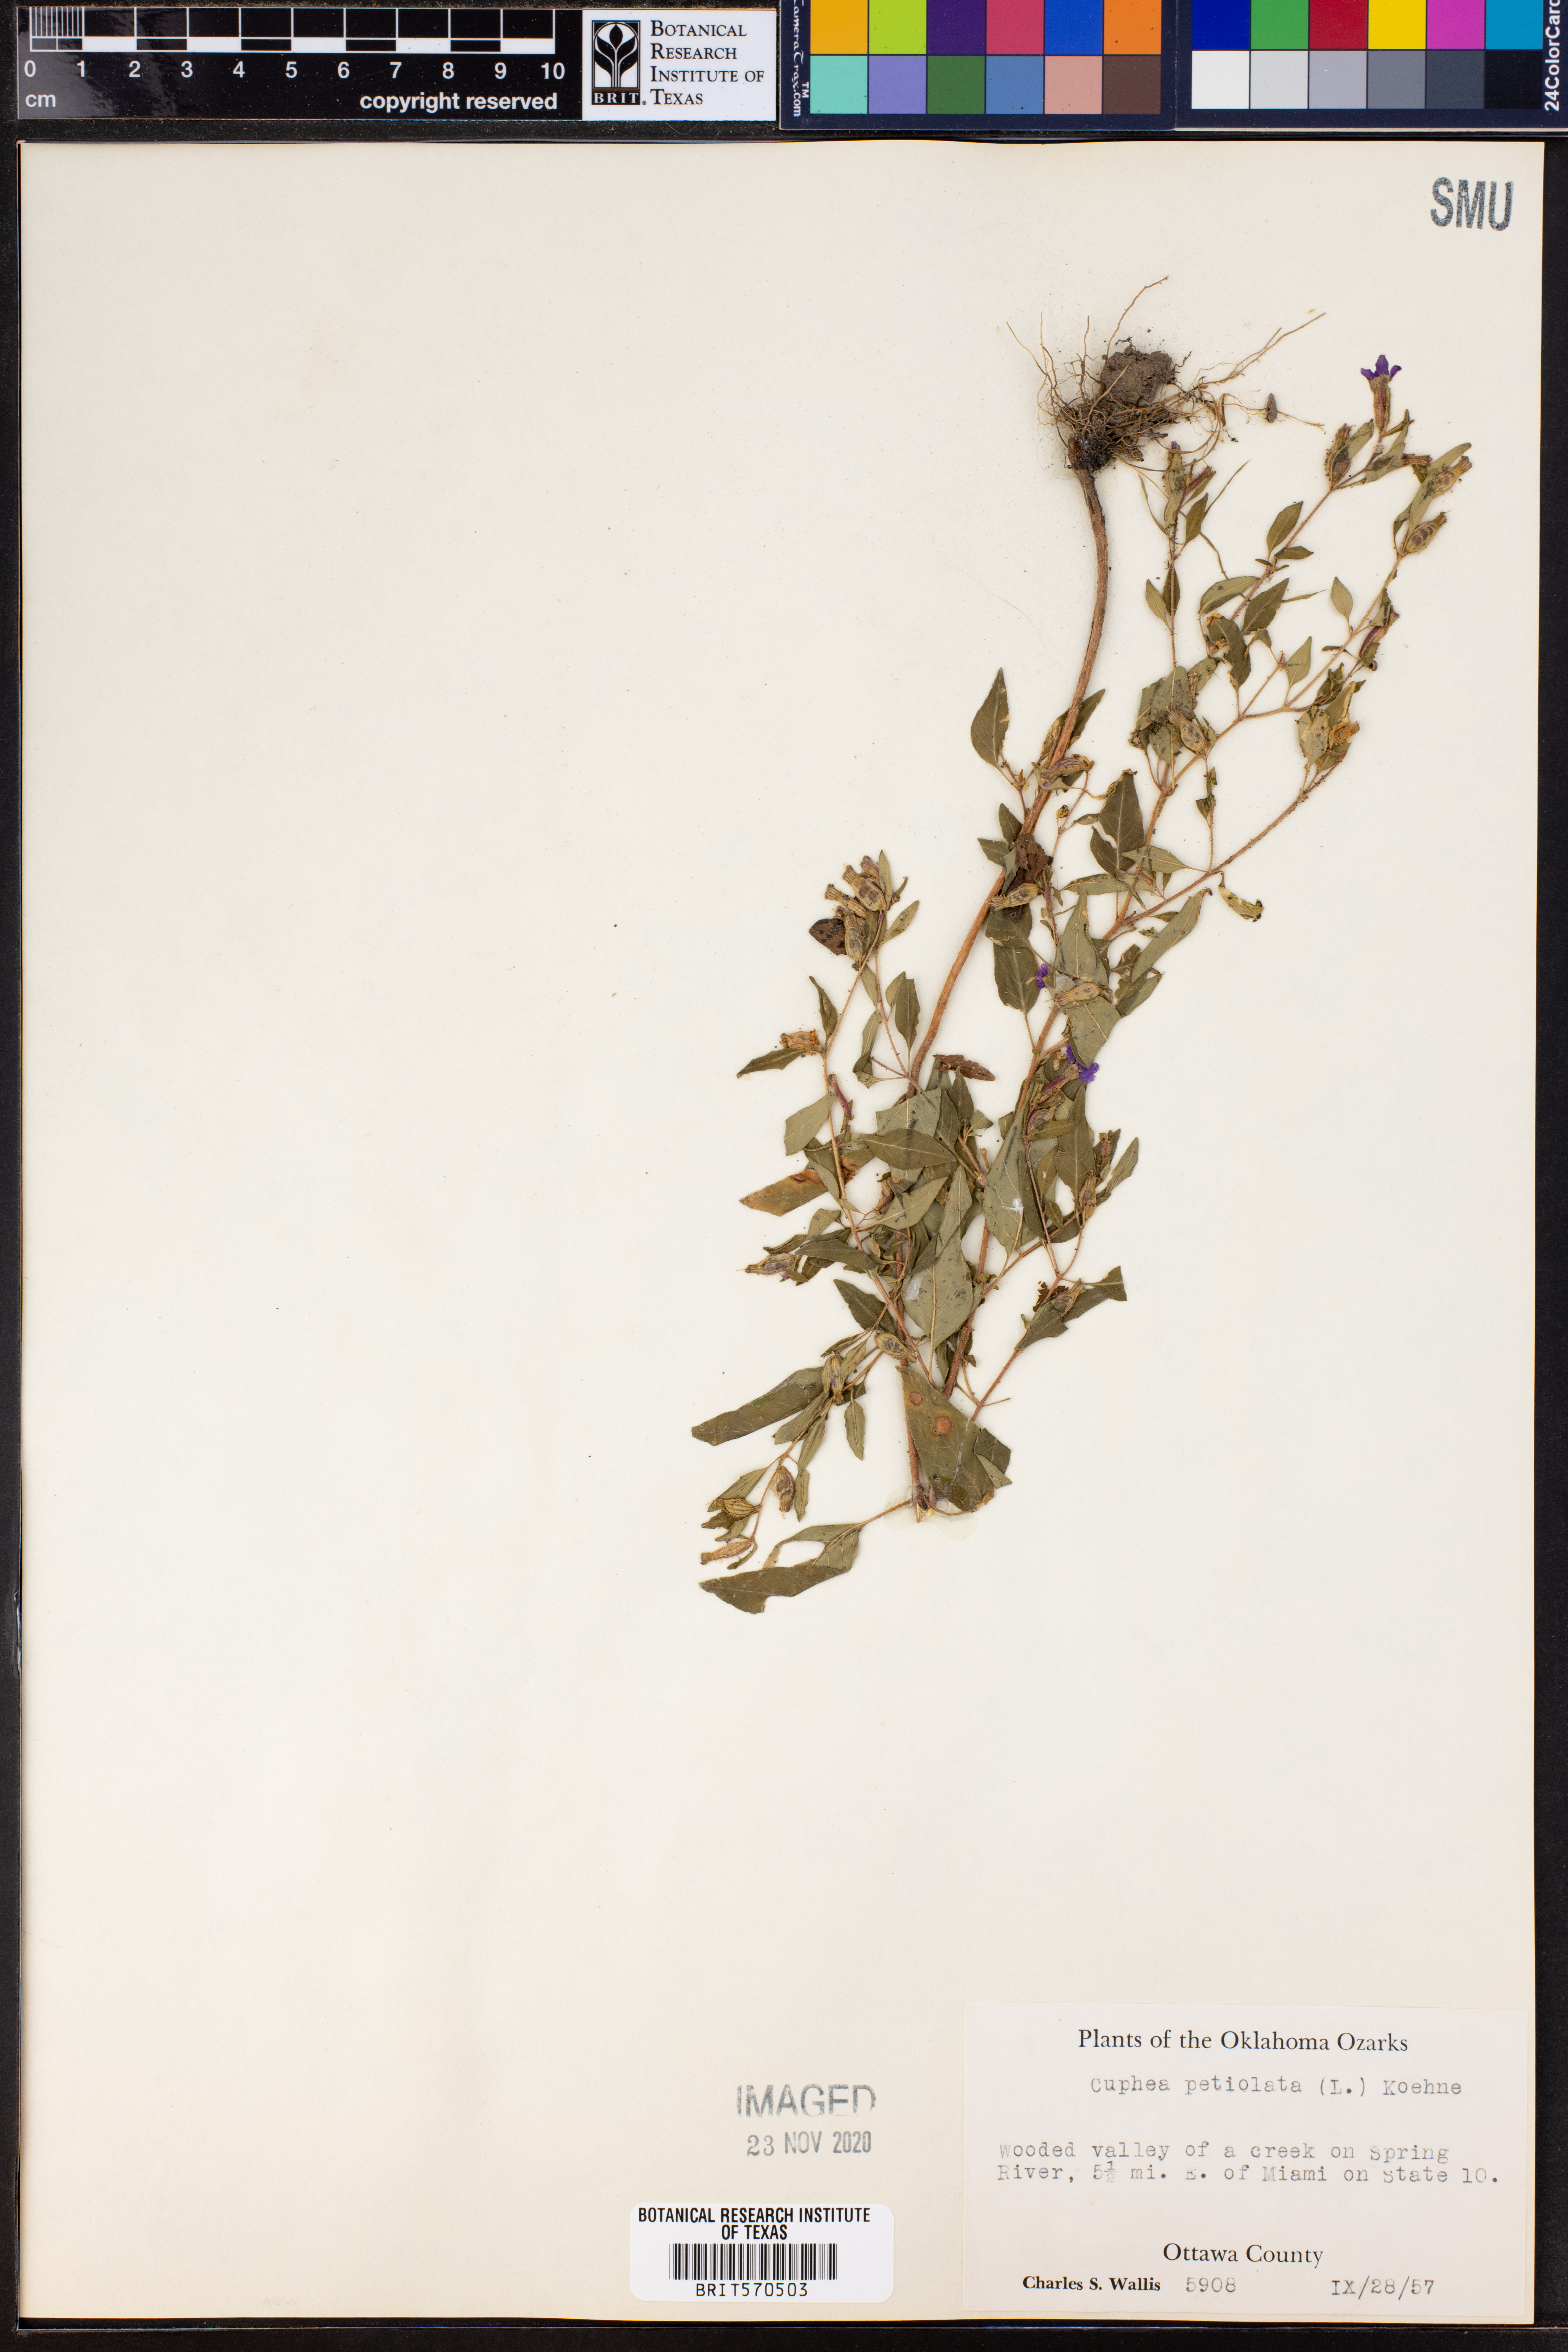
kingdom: Plantae
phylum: Tracheophyta
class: Magnoliopsida
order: Myrtales
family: Lythraceae
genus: Cuphea
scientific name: Cuphea viscosissima
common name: Clammy cuphea
